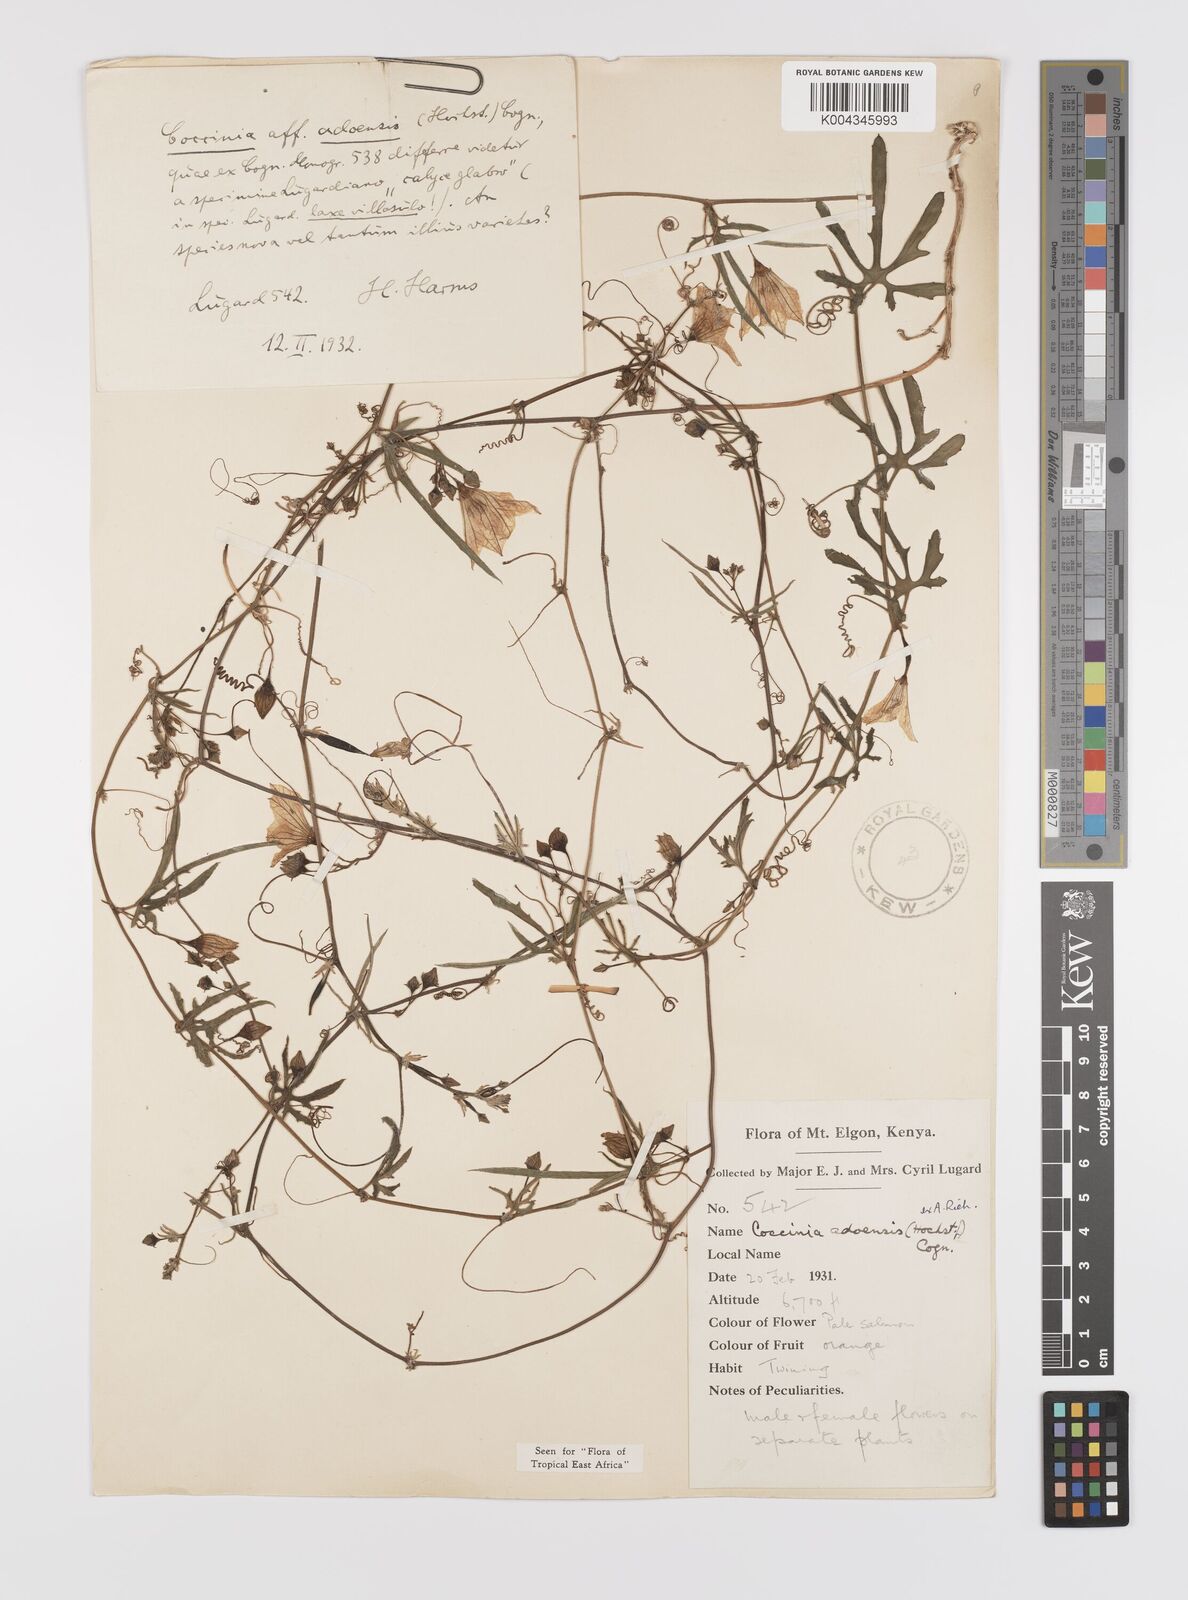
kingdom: Plantae
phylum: Tracheophyta
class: Magnoliopsida
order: Cucurbitales
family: Cucurbitaceae
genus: Coccinia
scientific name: Coccinia adoensis
